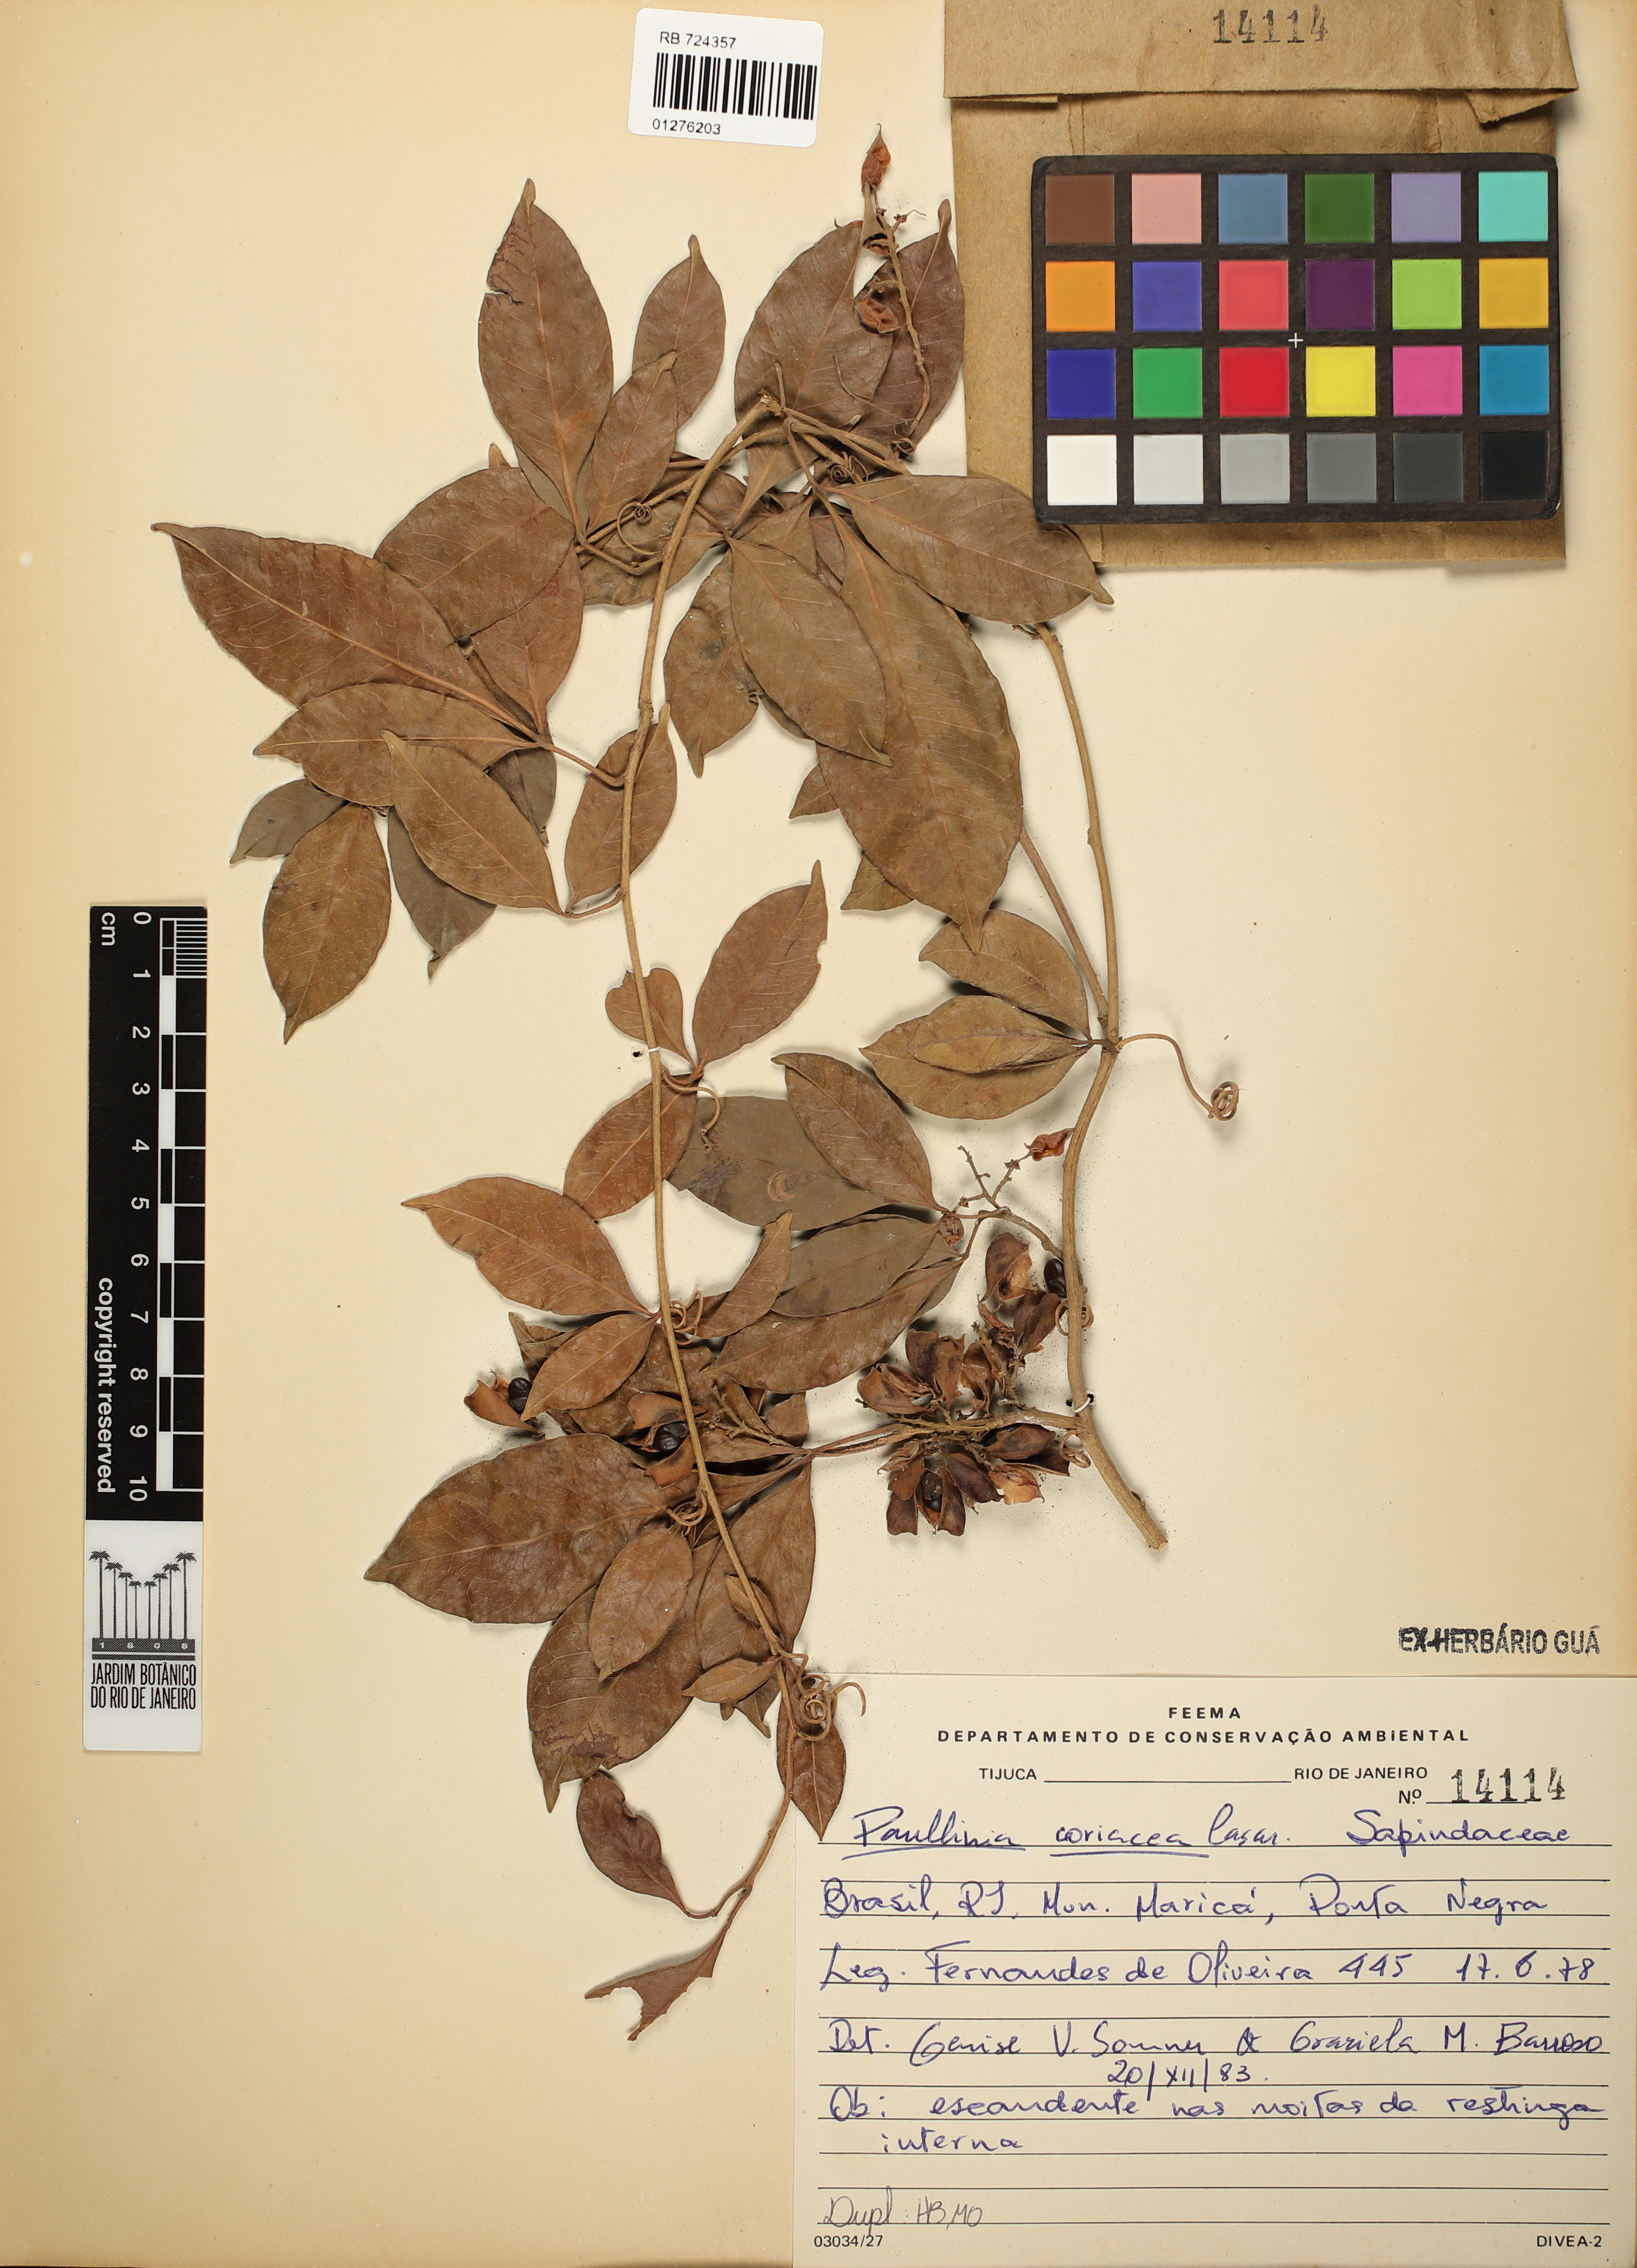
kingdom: Plantae
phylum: Tracheophyta
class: Magnoliopsida
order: Sapindales
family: Sapindaceae
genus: Paullinia
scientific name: Paullinia coriacea
